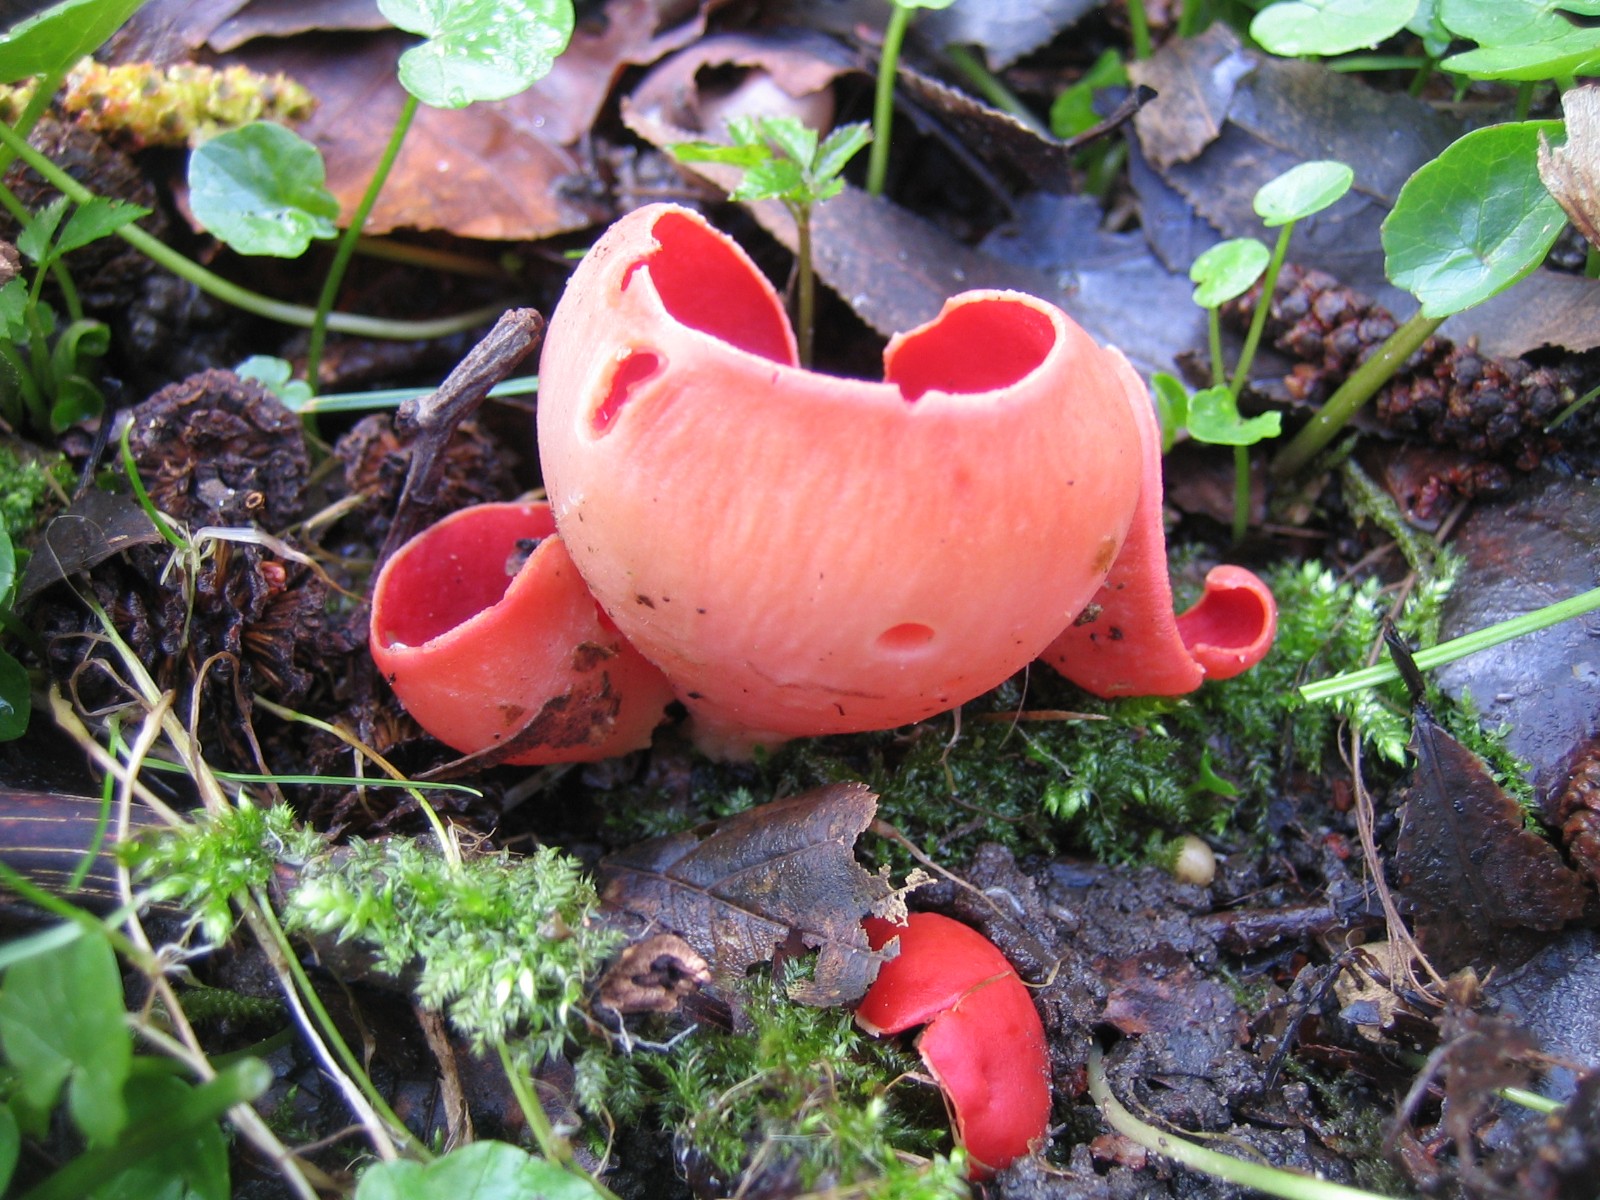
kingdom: Fungi
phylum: Ascomycota
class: Pezizomycetes
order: Pezizales
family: Sarcoscyphaceae
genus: Sarcoscypha
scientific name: Sarcoscypha austriaca
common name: krølhåret pragtbæger
